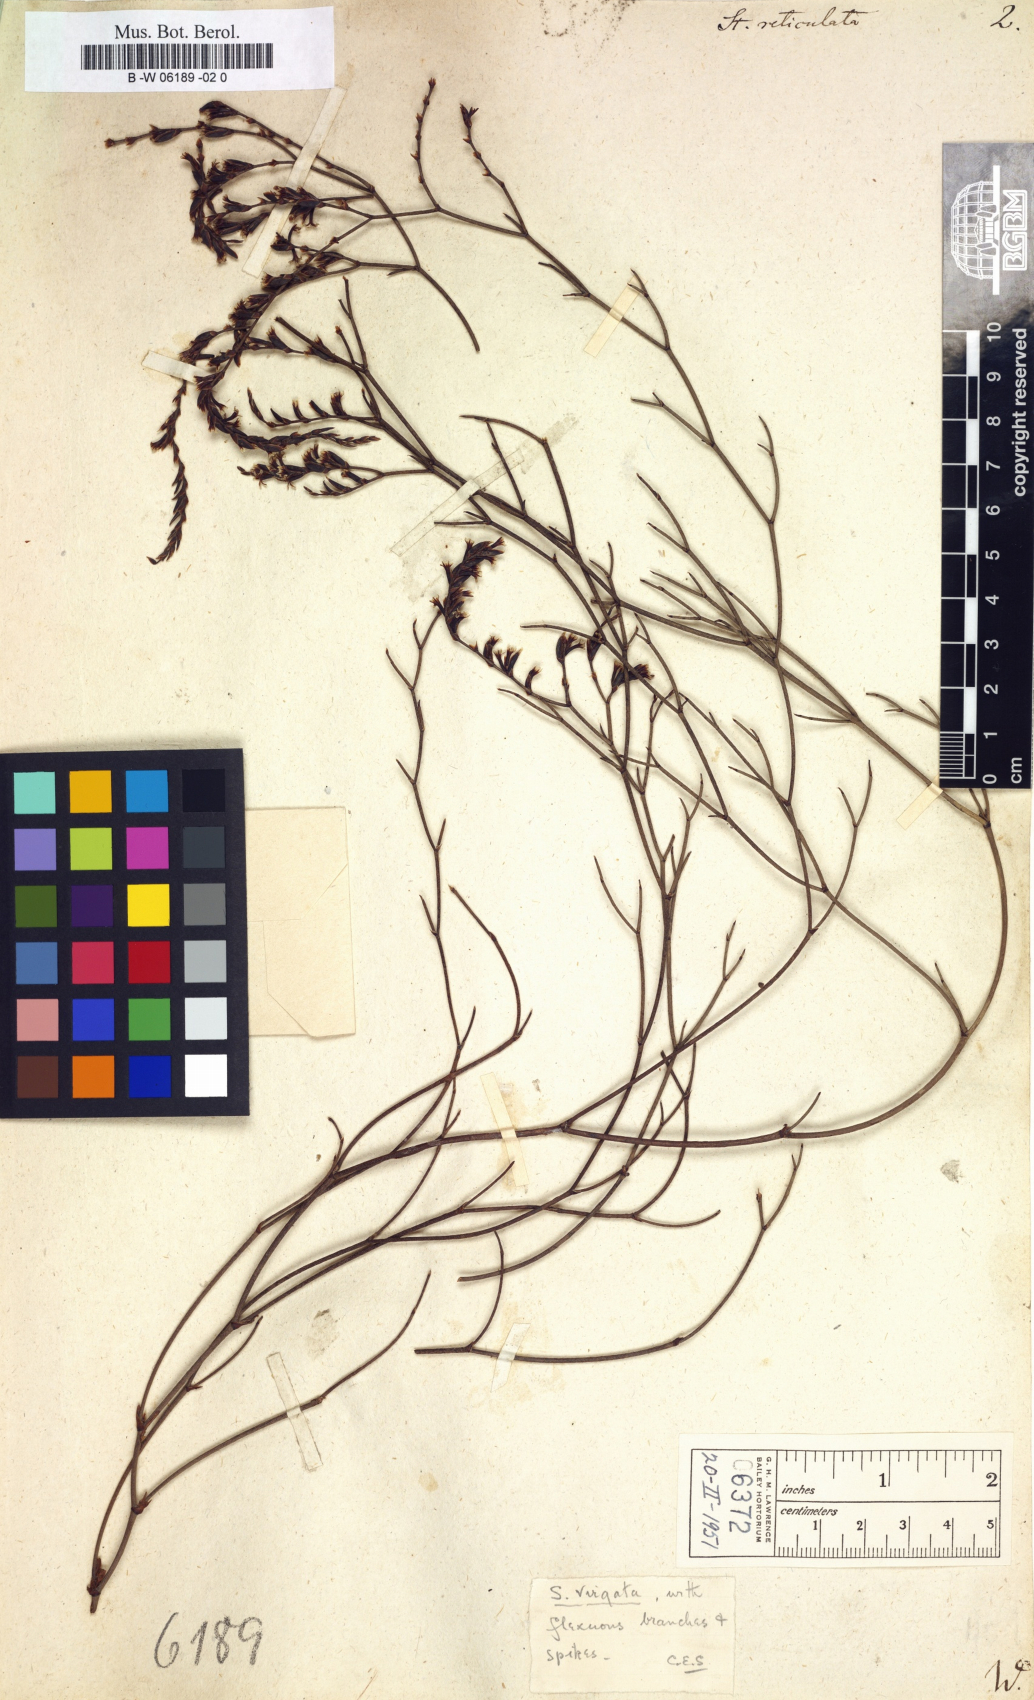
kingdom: Plantae
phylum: Tracheophyta
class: Magnoliopsida
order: Caryophyllales
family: Plumbaginaceae
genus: Limonium
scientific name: Limonium
